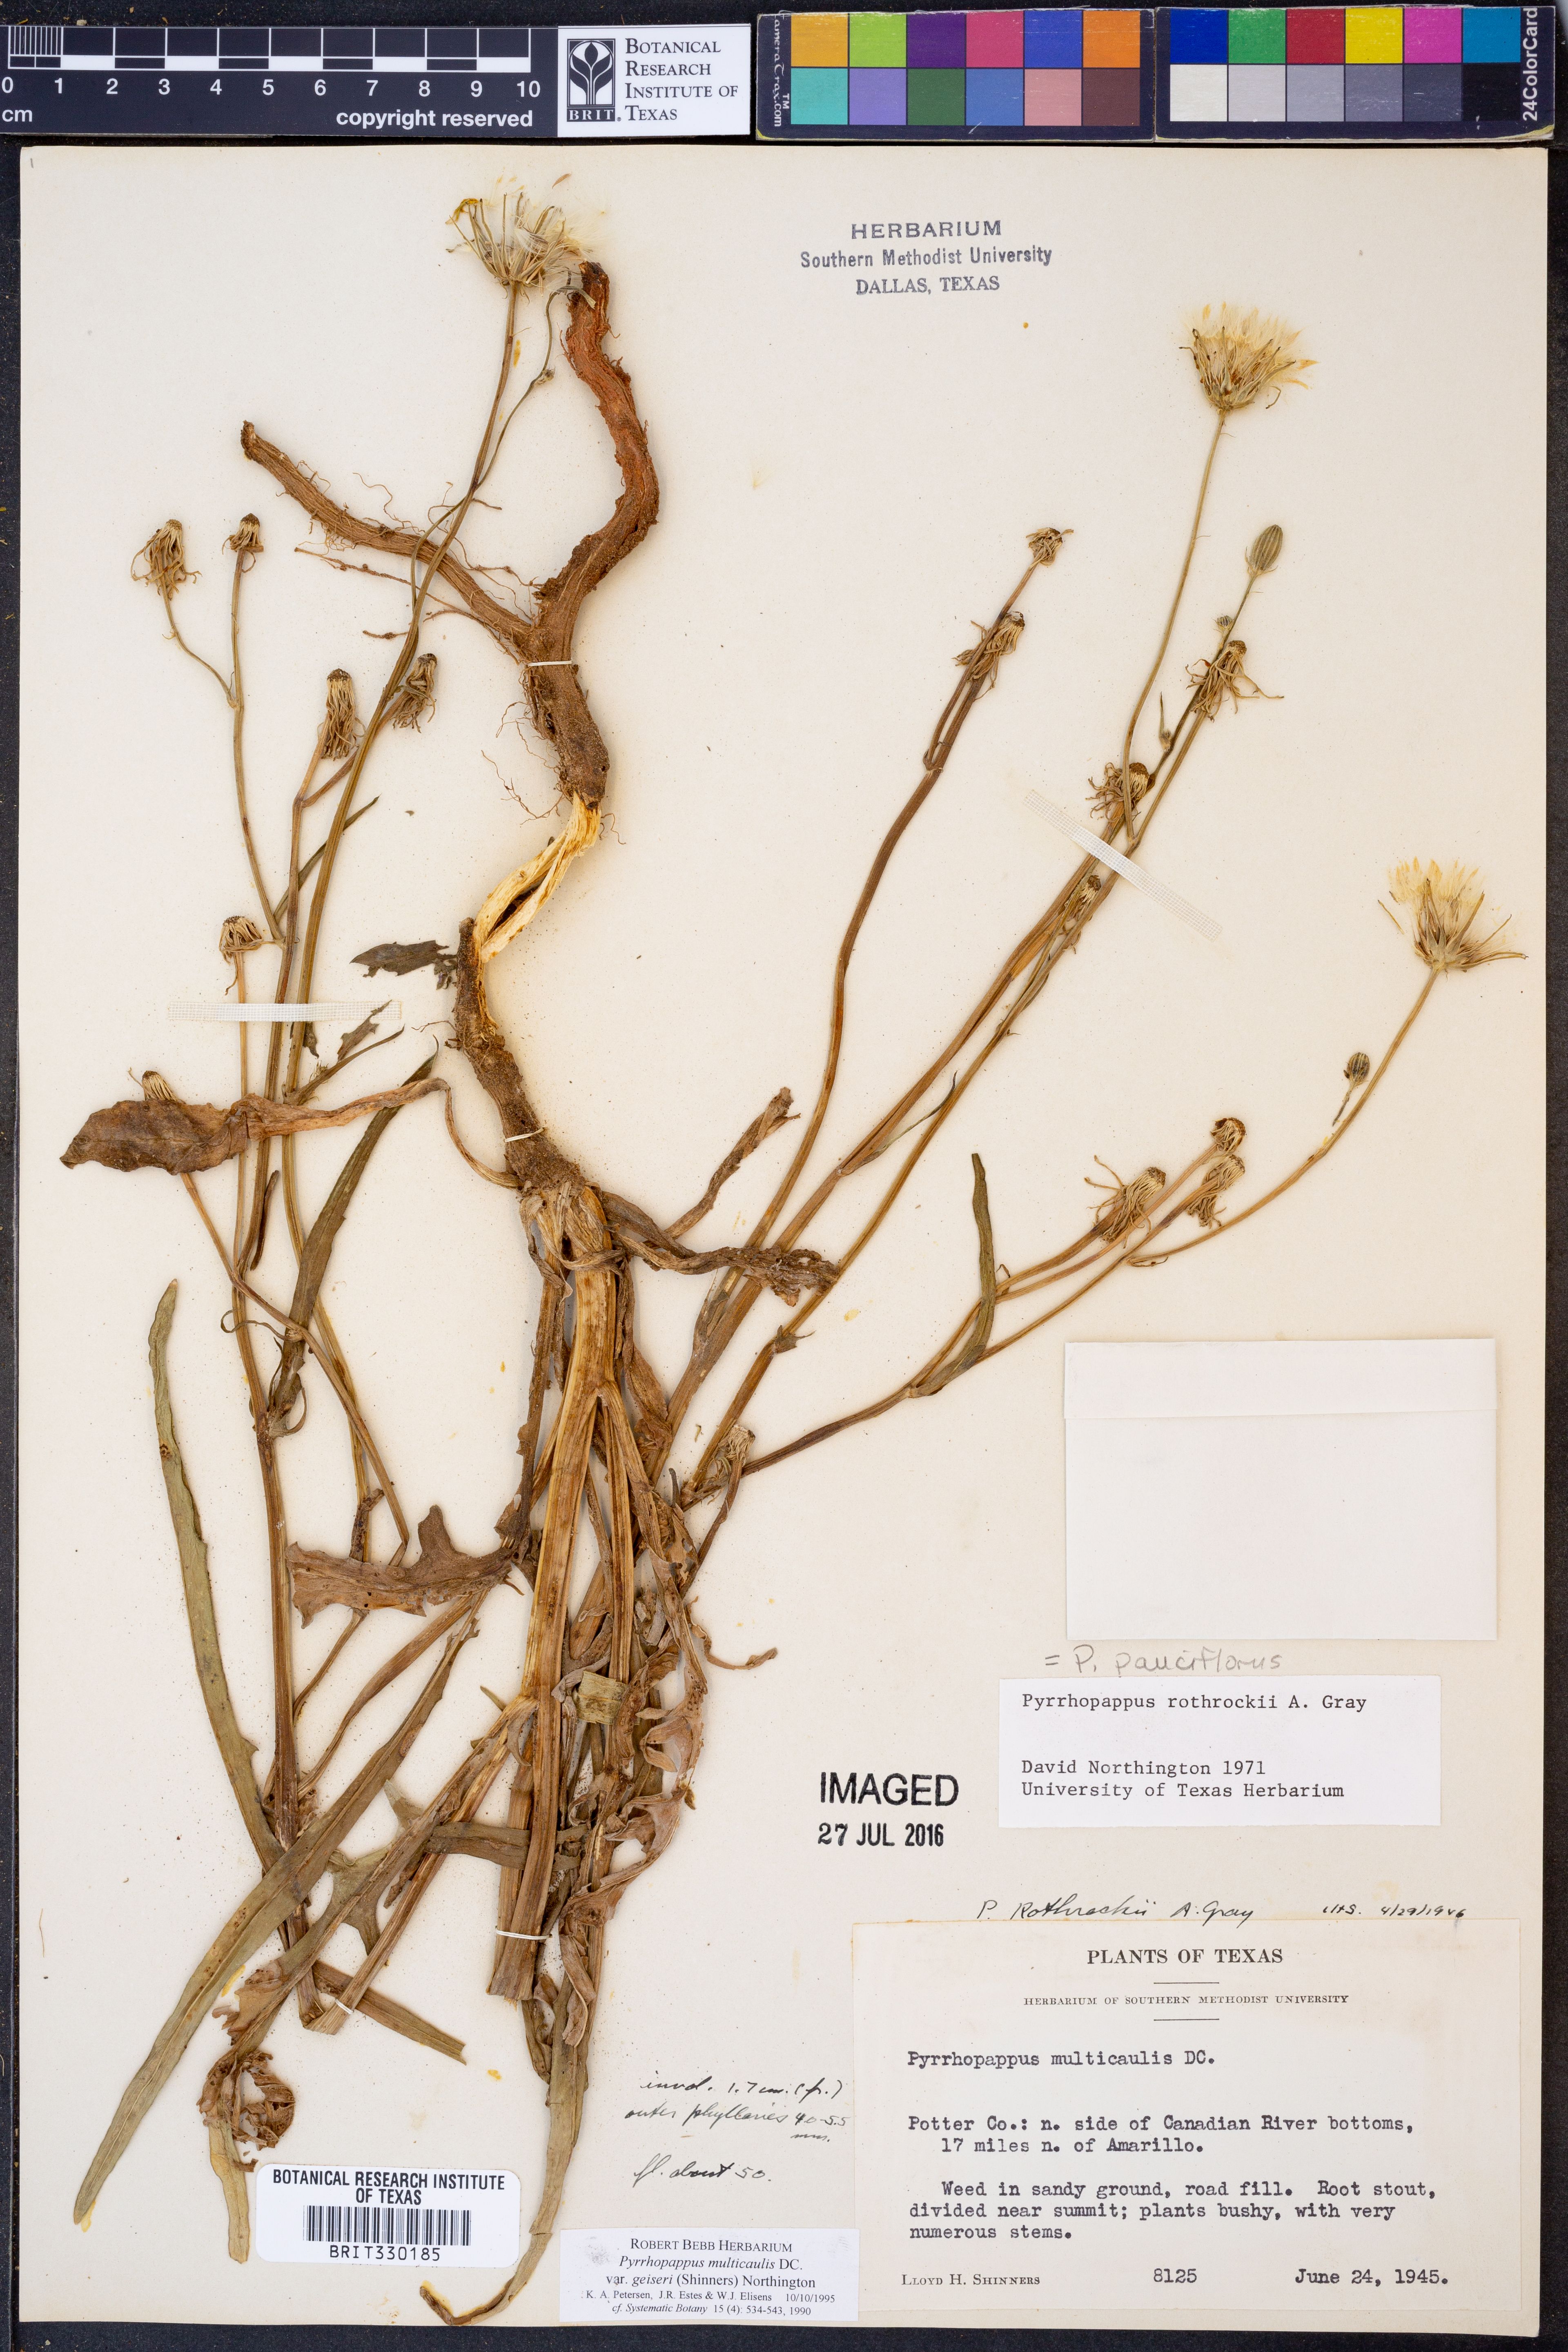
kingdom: Plantae
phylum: Tracheophyta
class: Magnoliopsida
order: Asterales
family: Asteraceae
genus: Pyrrhopappus
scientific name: Pyrrhopappus pauciflorus
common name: Texas false dandelion
